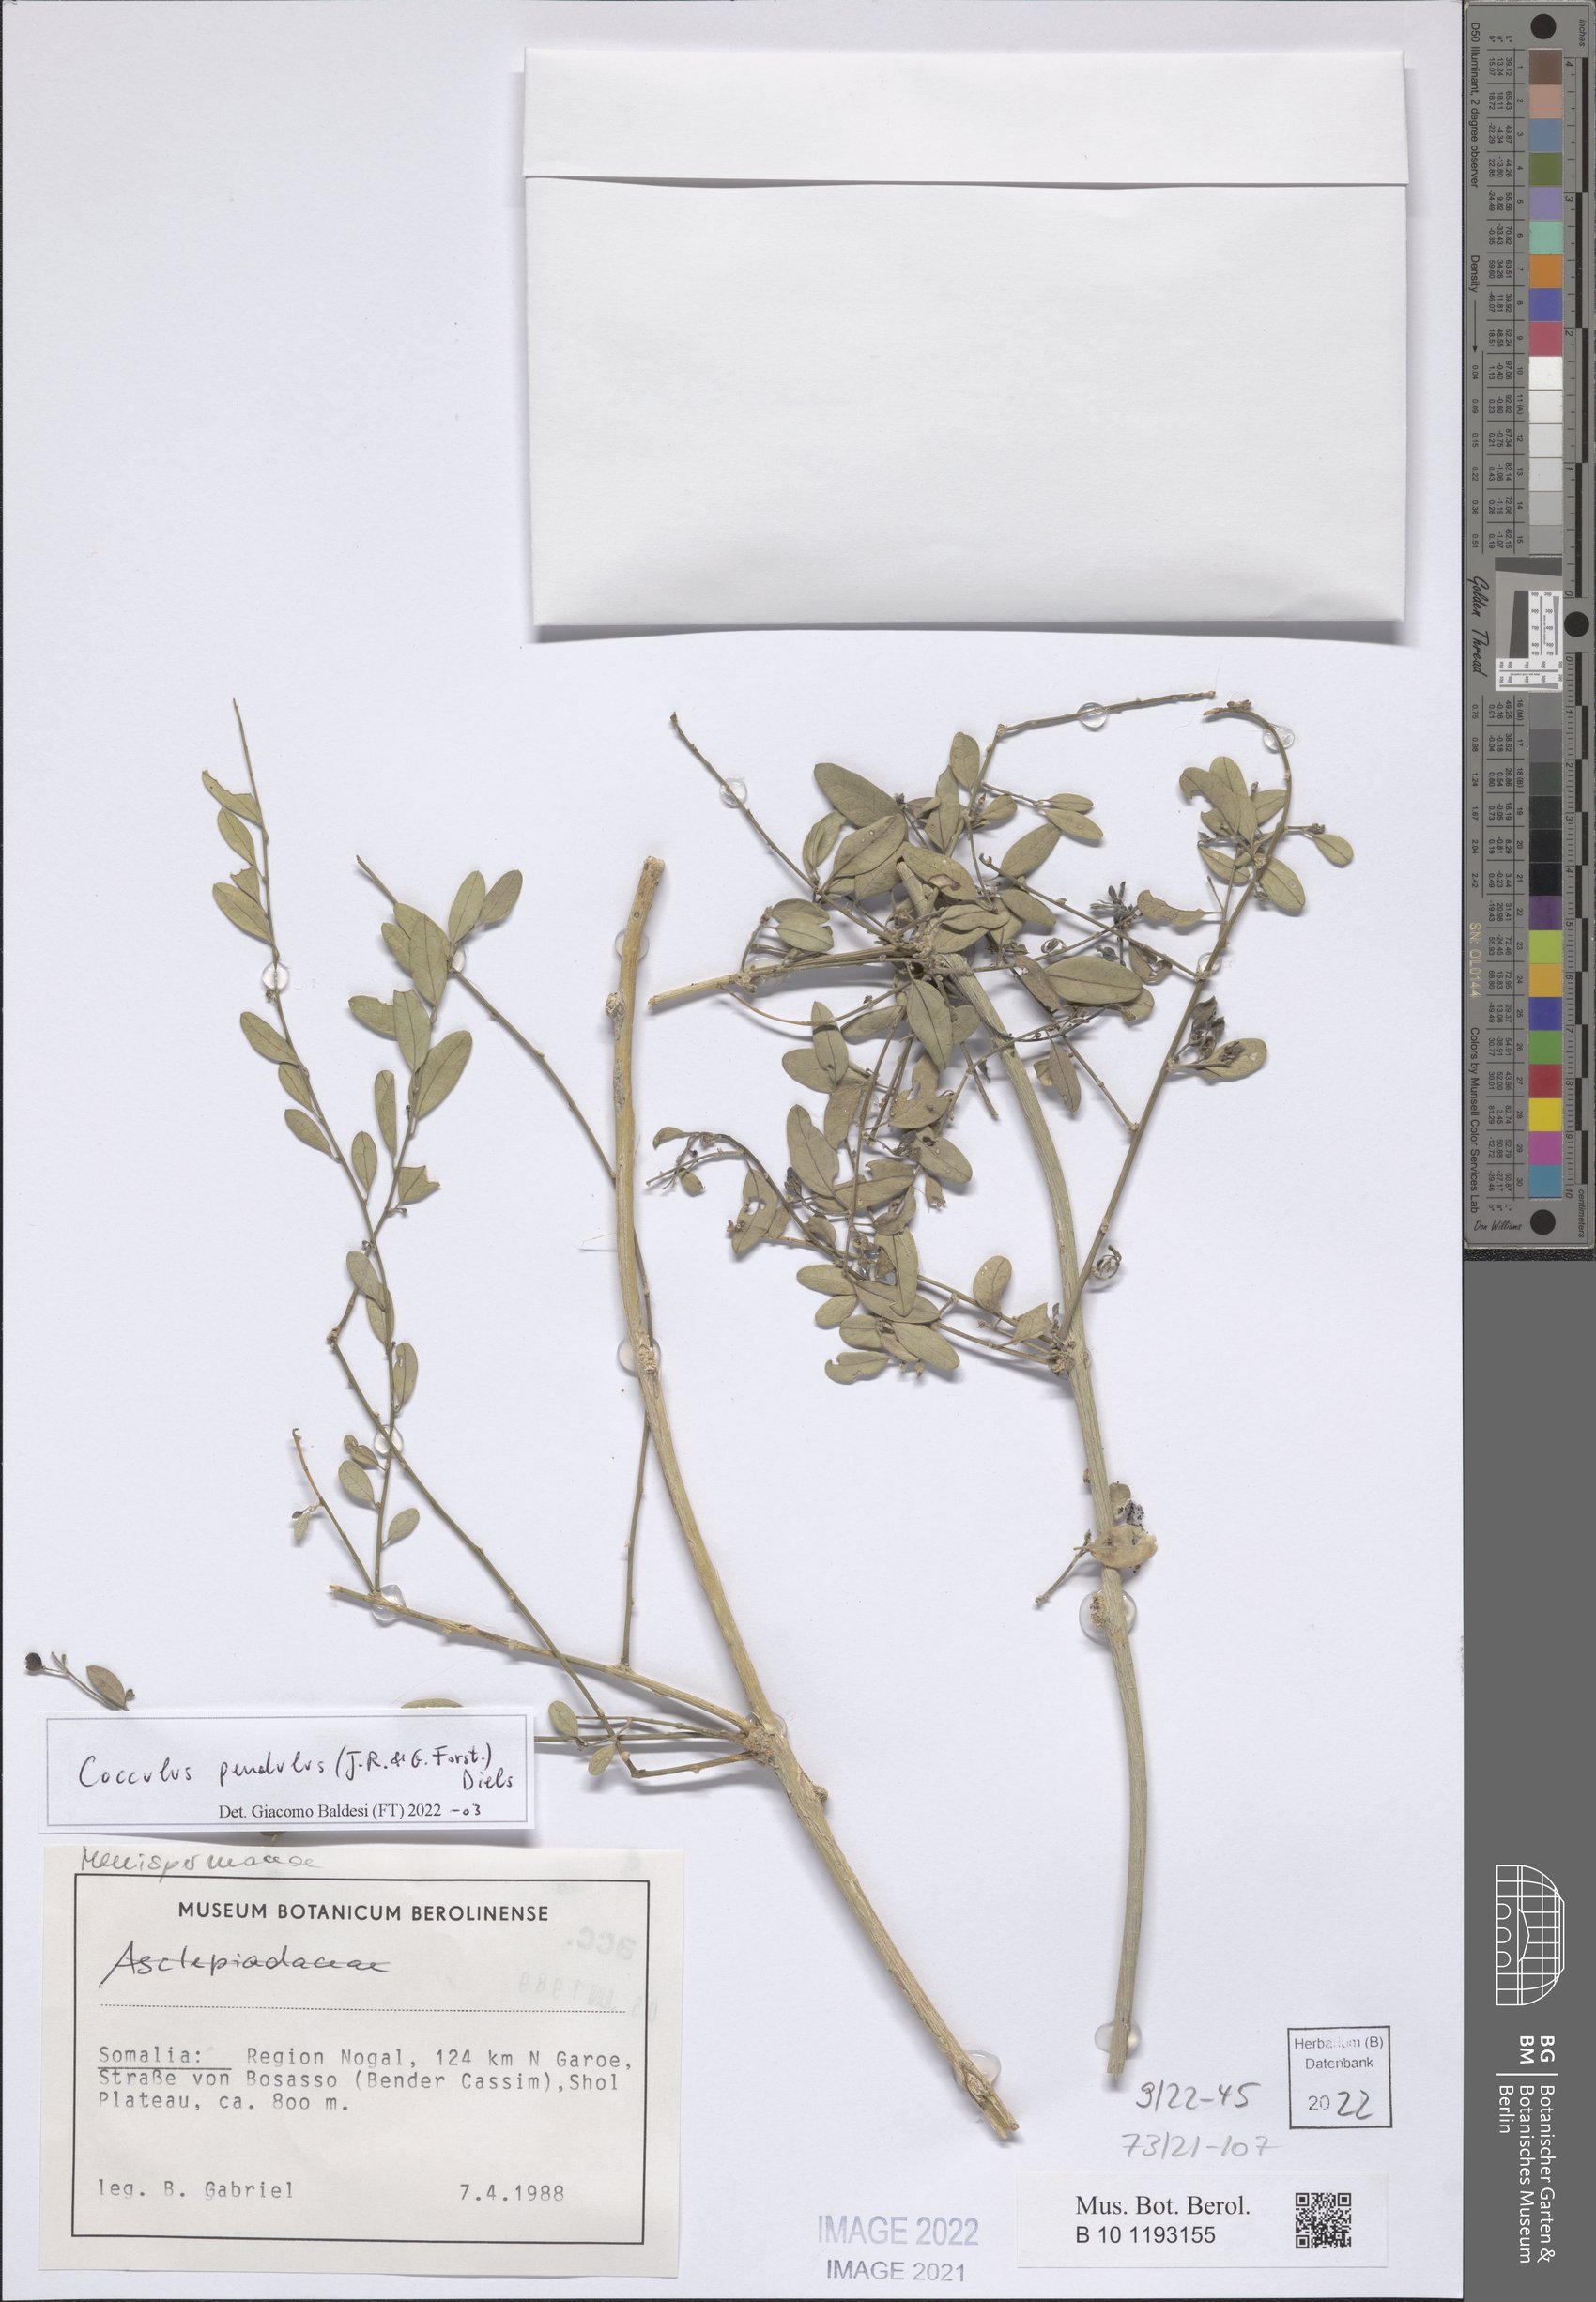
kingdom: Plantae
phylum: Tracheophyta
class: Magnoliopsida
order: Ranunculales
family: Menispermaceae
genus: Cocculus
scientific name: Cocculus pendulus
